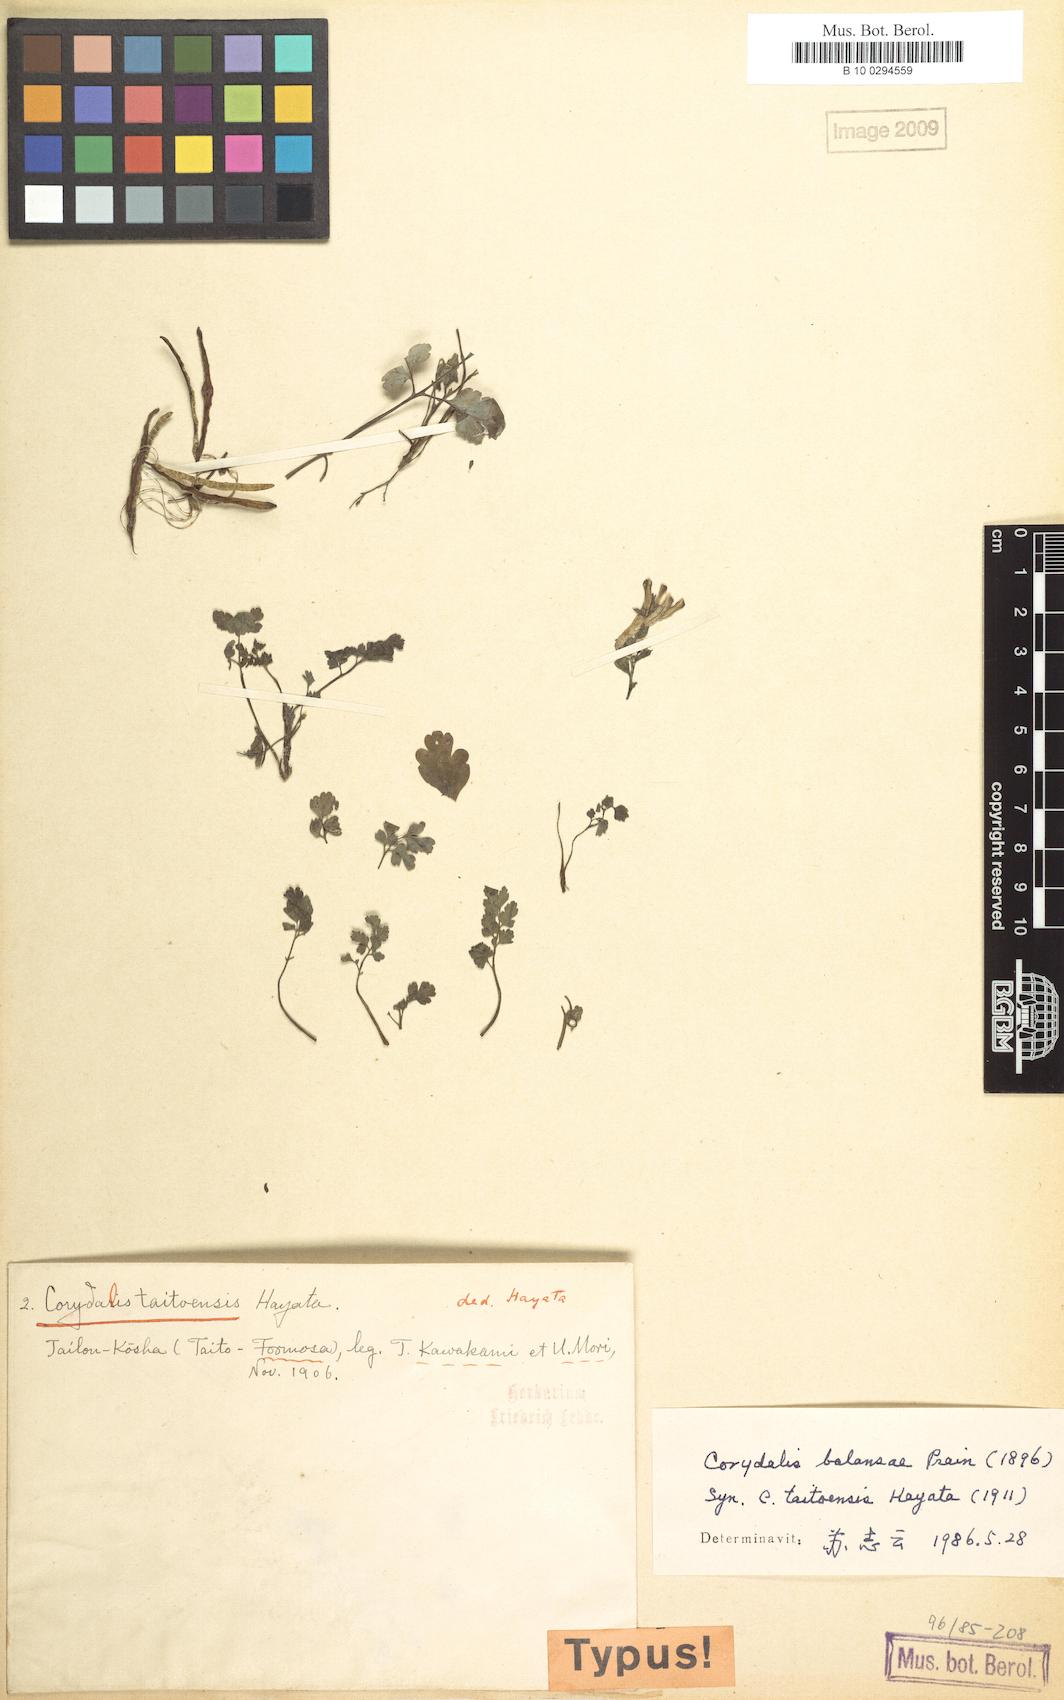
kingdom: Plantae
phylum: Tracheophyta
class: Magnoliopsida
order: Ranunculales
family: Papaveraceae
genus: Corydalis
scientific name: Corydalis balansae
